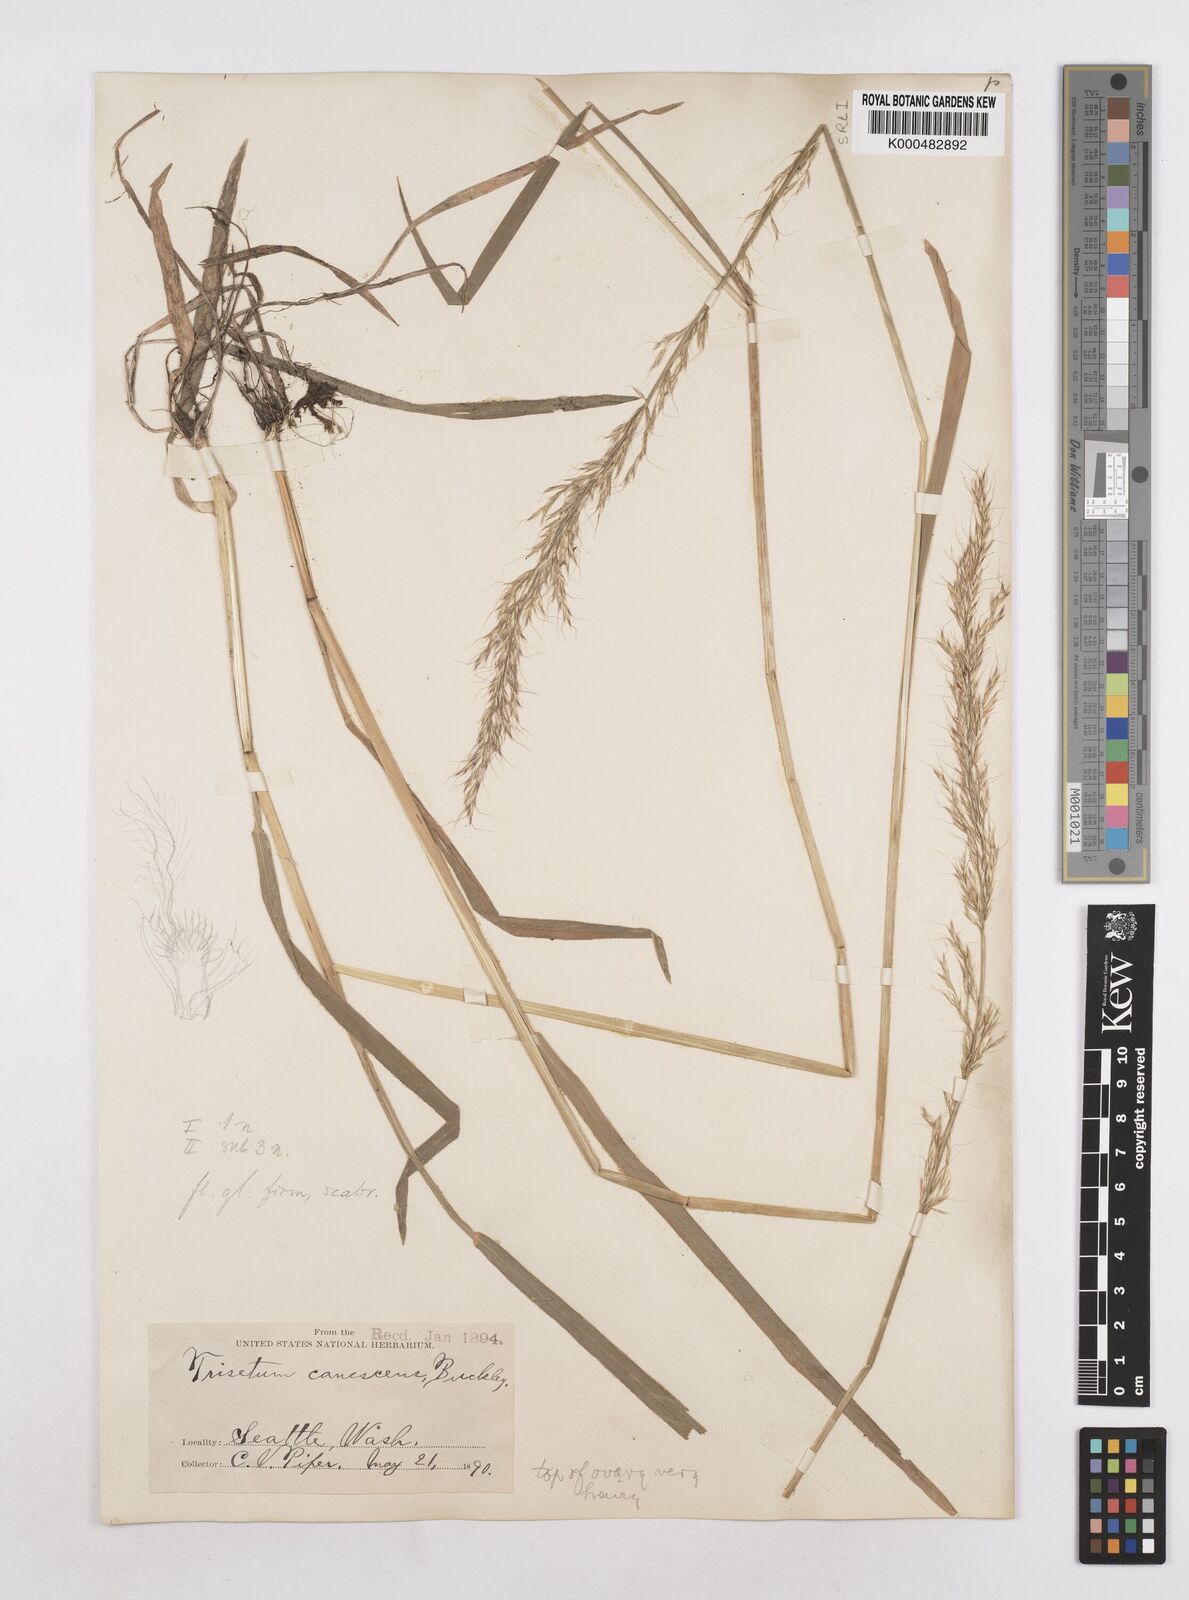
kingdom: Plantae
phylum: Tracheophyta
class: Liliopsida
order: Poales
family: Poaceae
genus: Graphephorum
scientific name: Graphephorum canescens
